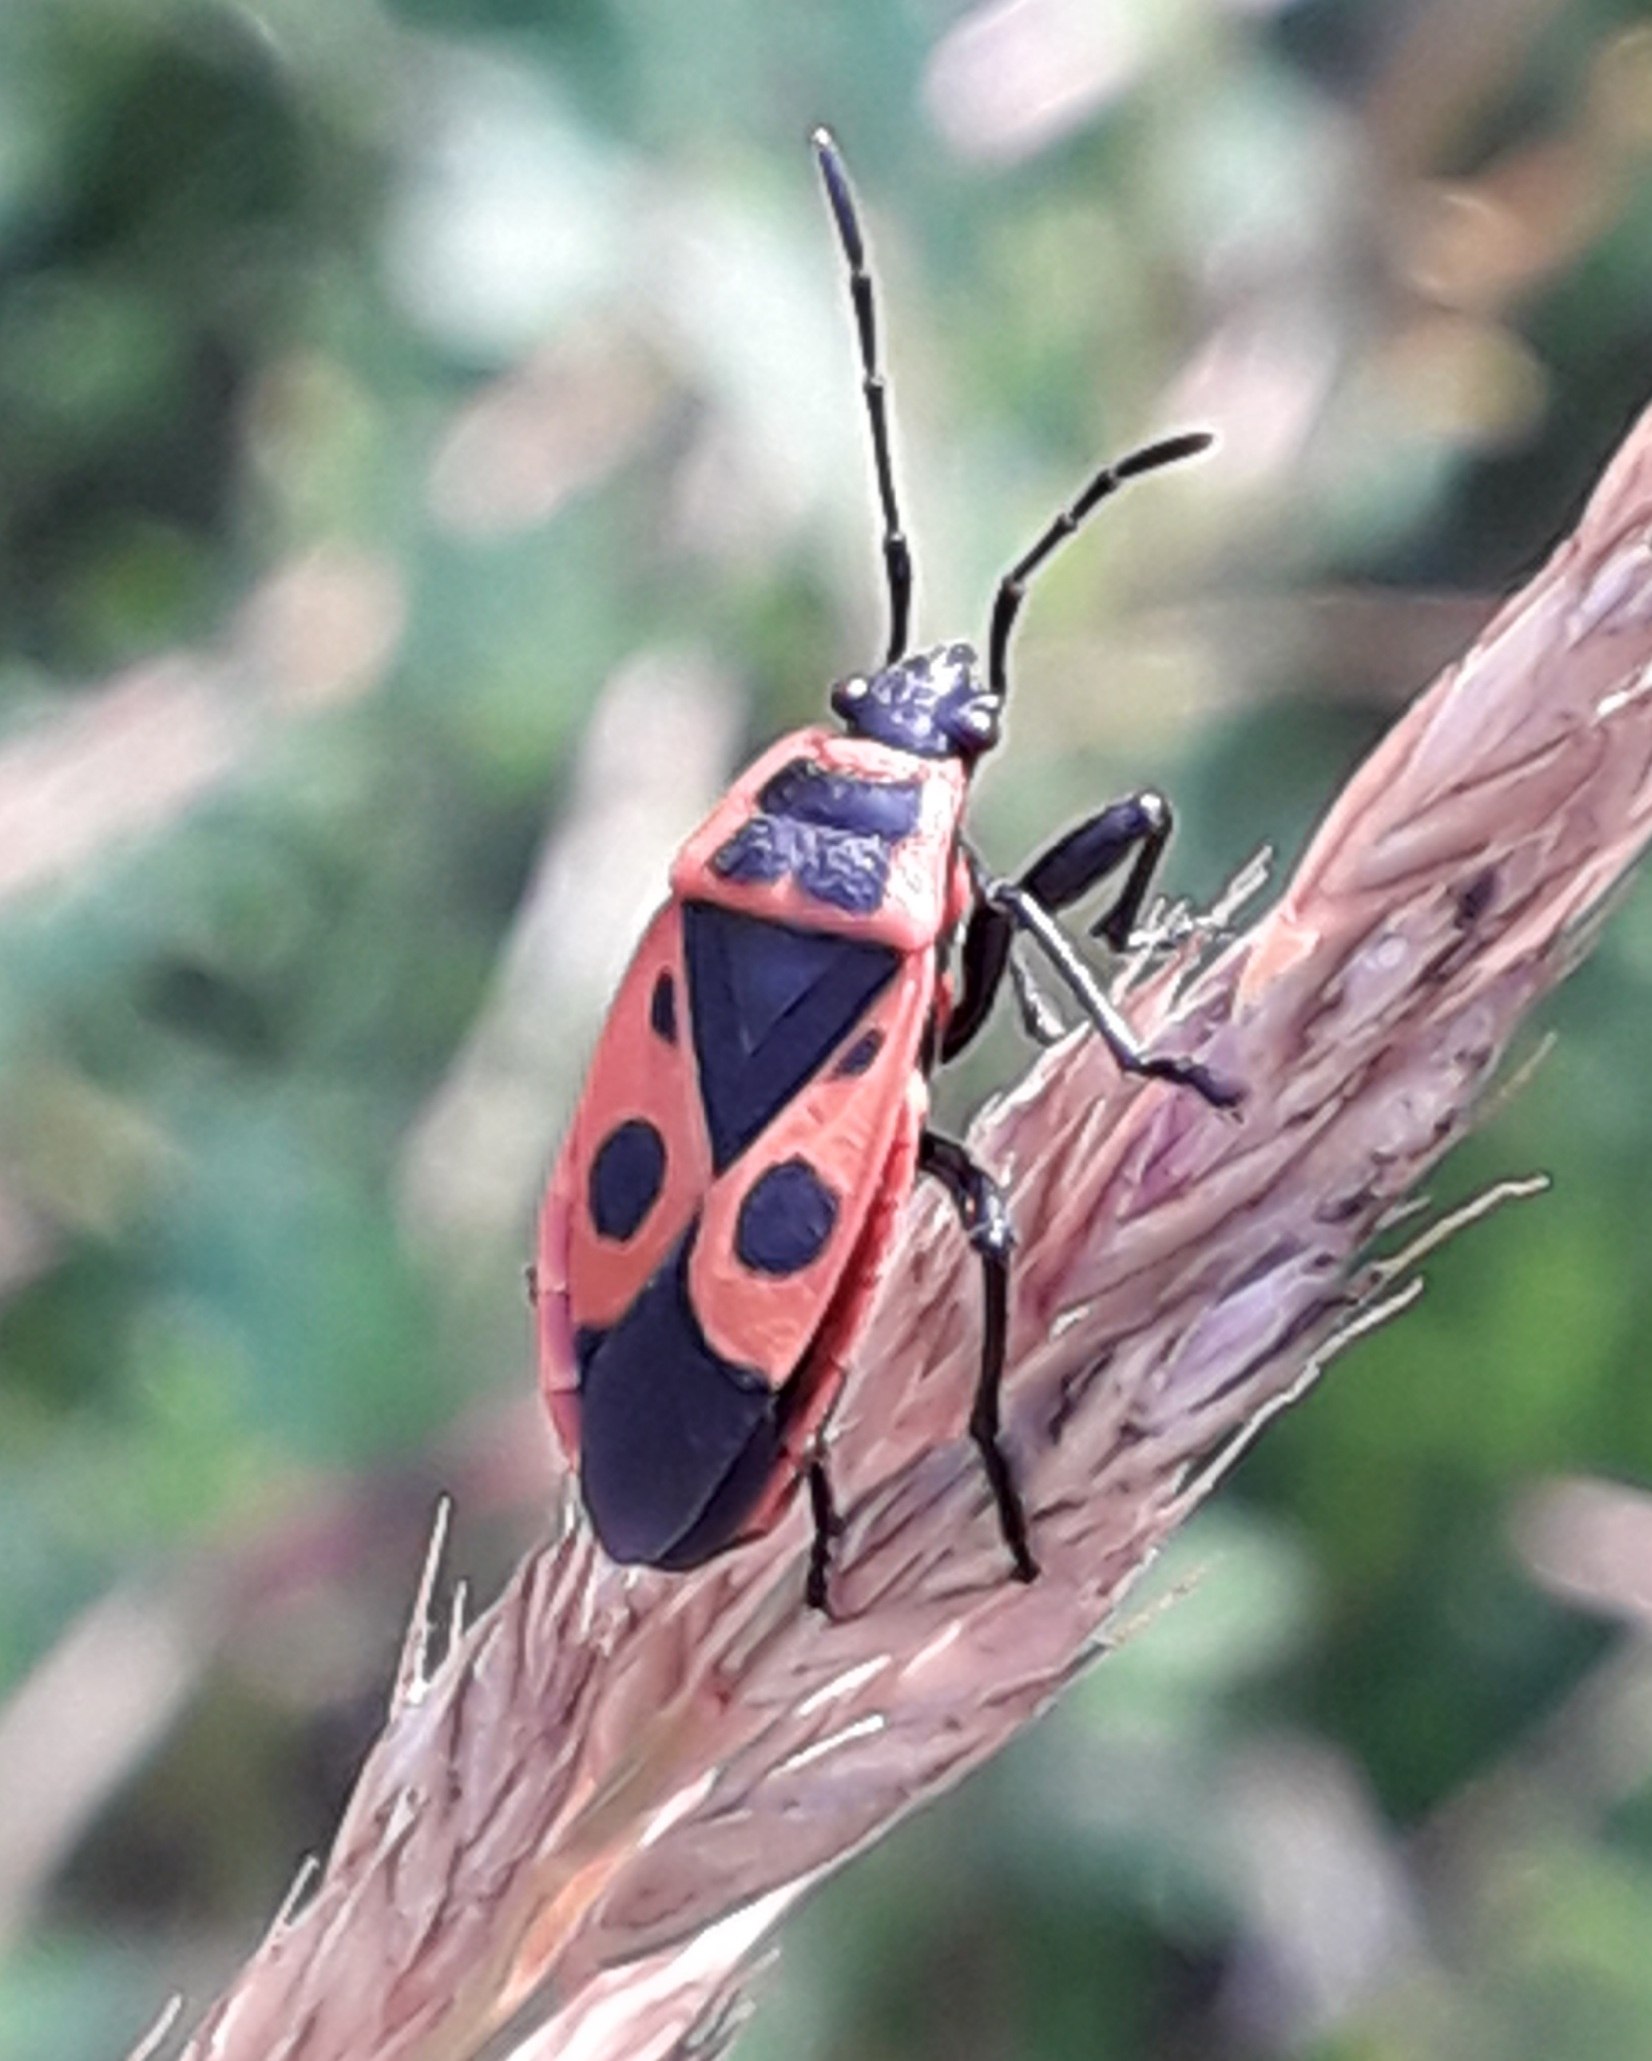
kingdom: Animalia
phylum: Arthropoda
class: Insecta
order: Hemiptera
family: Pyrrhocoridae
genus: Pyrrhocoris
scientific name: Pyrrhocoris apterus
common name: Ildtæge
